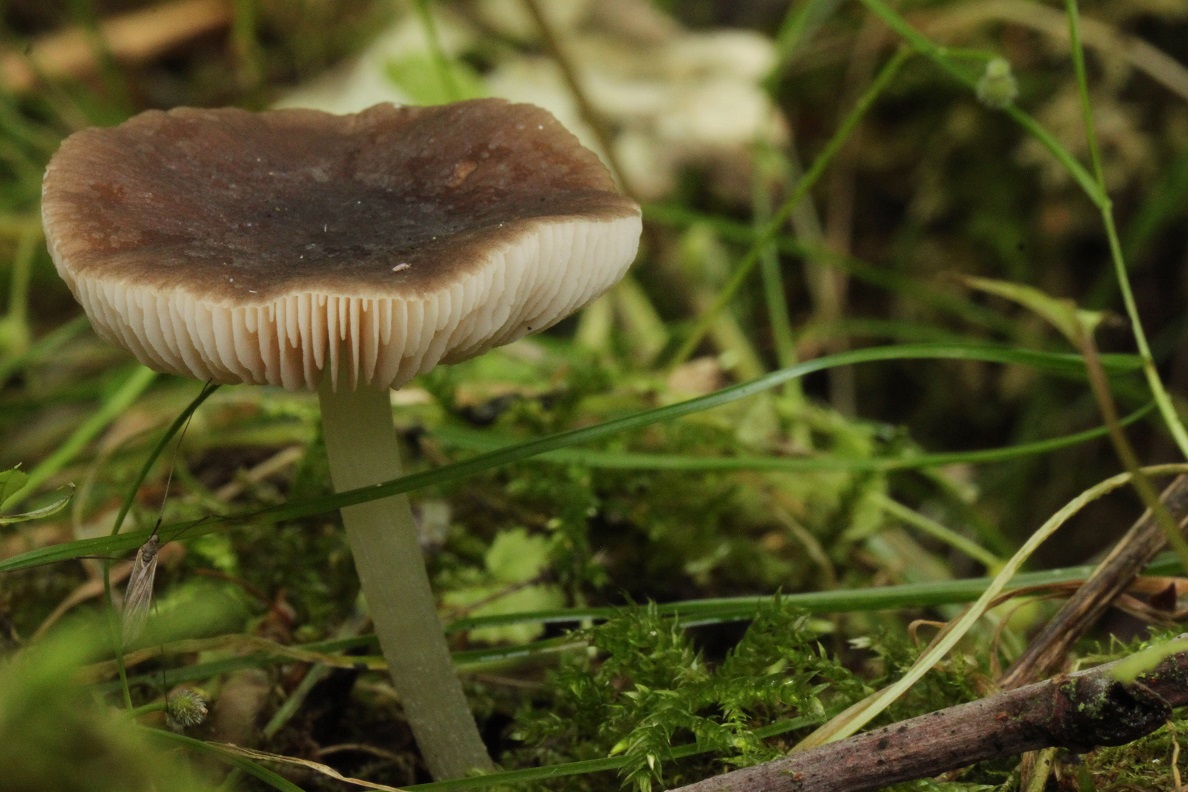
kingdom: Fungi
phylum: Basidiomycota
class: Agaricomycetes
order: Agaricales
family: Pluteaceae
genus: Pluteus
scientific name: Pluteus
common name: pudret skærmhat
